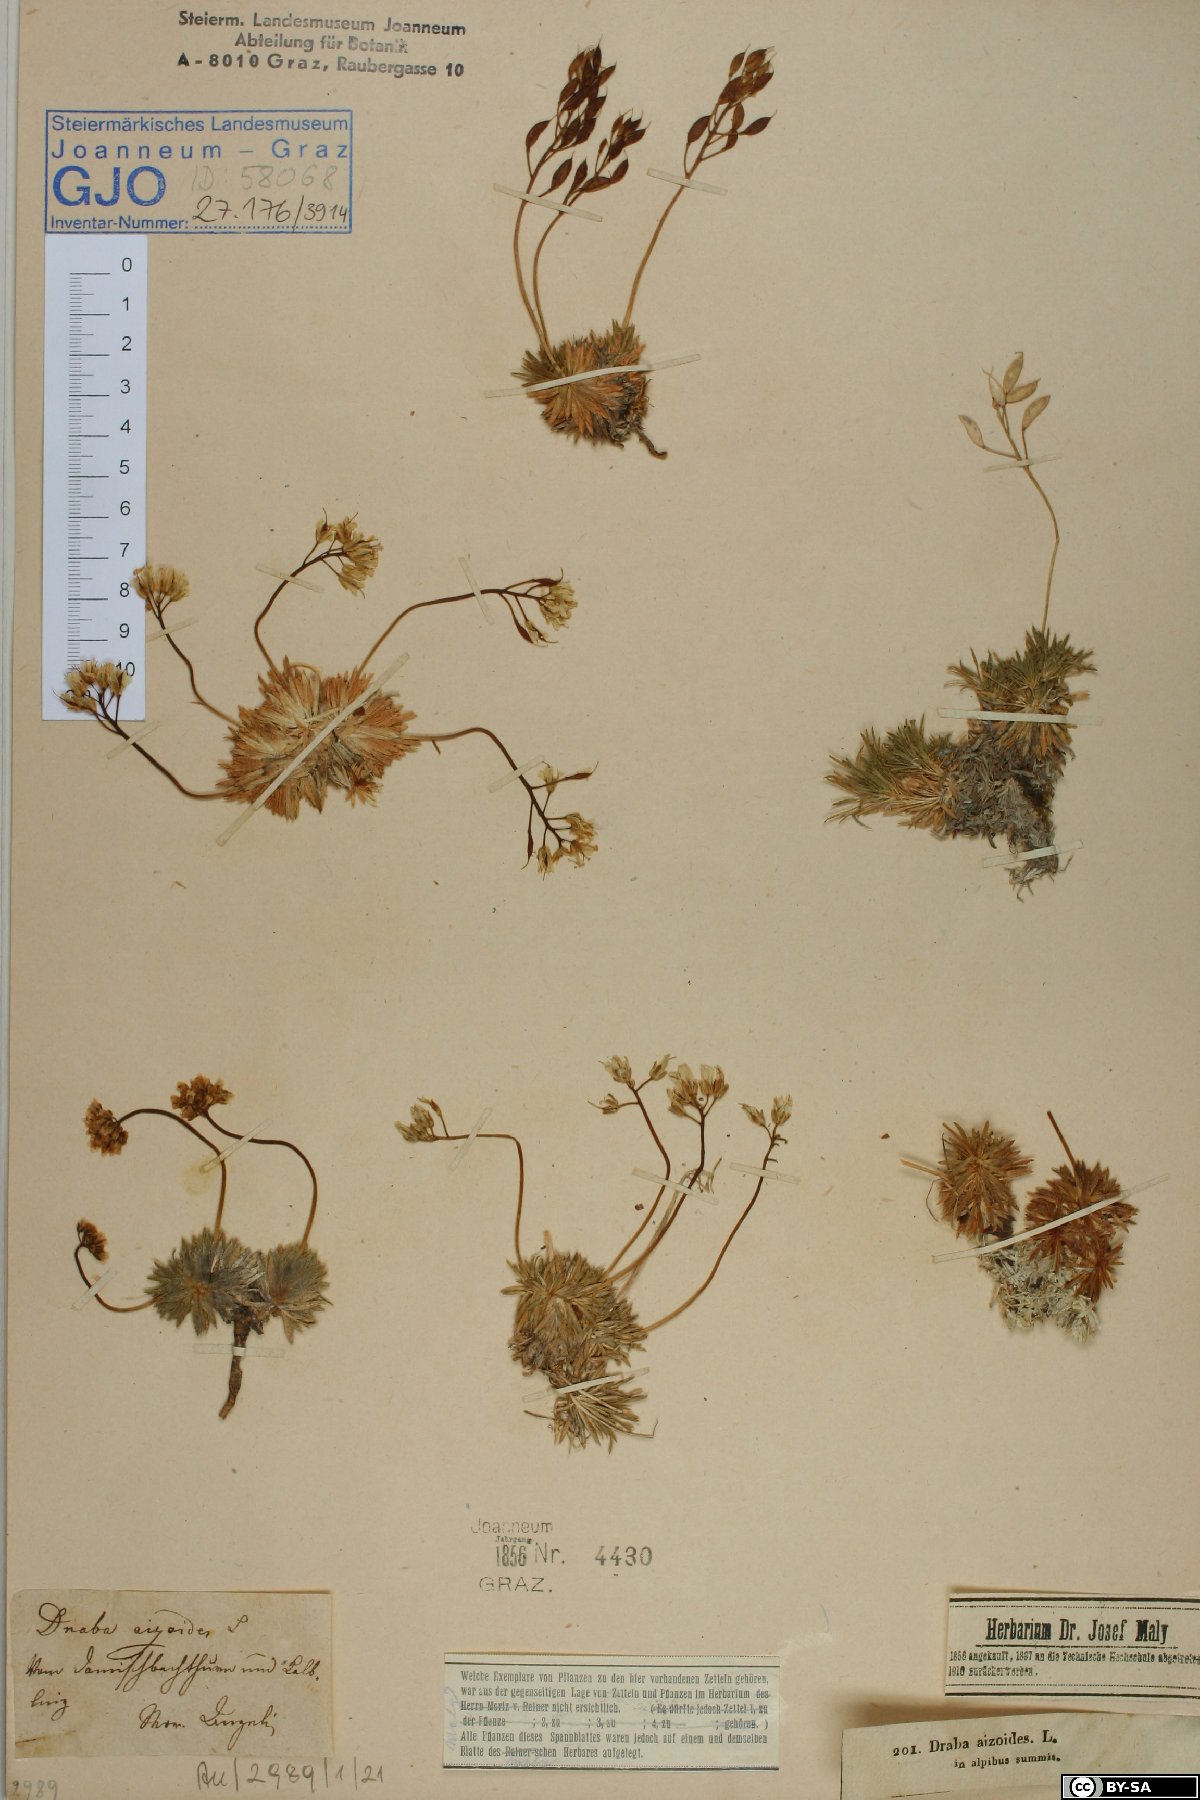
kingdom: Plantae
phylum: Tracheophyta
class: Magnoliopsida
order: Brassicales
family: Brassicaceae
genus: Draba
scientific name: Draba aizoides
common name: Yellow whitlowgrass
